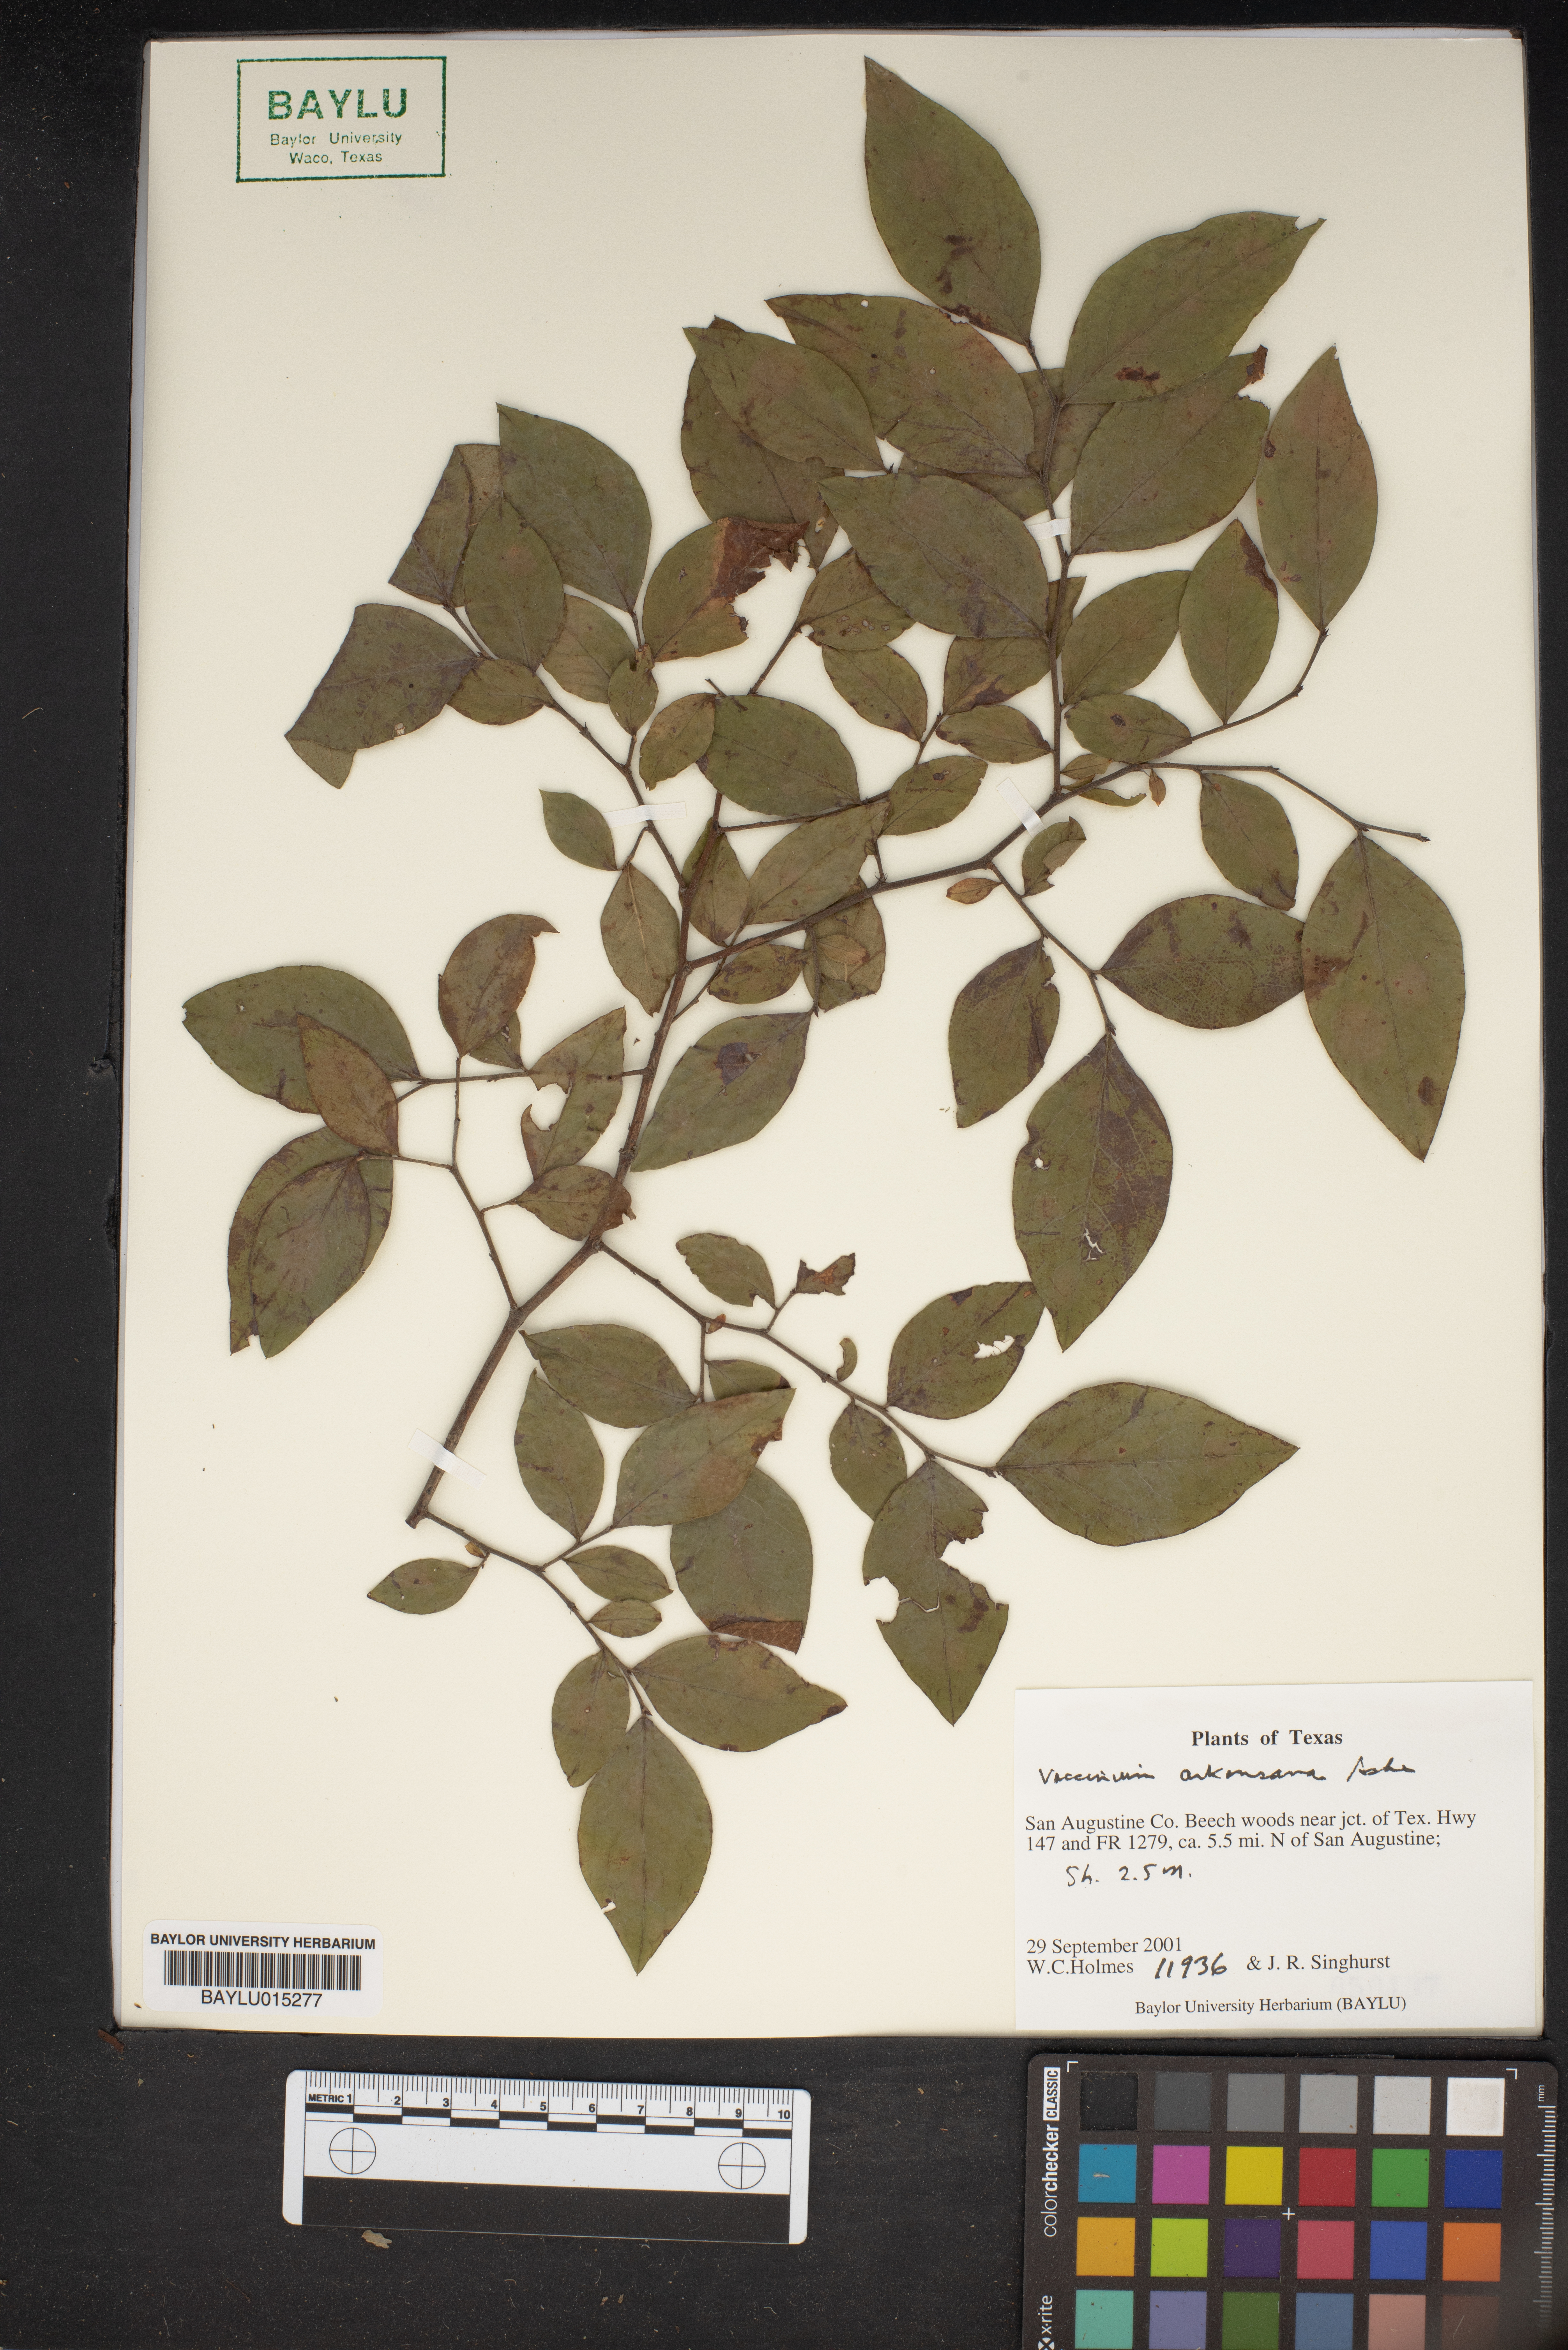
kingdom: Plantae
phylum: Tracheophyta
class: Magnoliopsida
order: Ericales
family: Ericaceae
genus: Vaccinium
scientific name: Vaccinium corymbosum
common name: Blueberry
